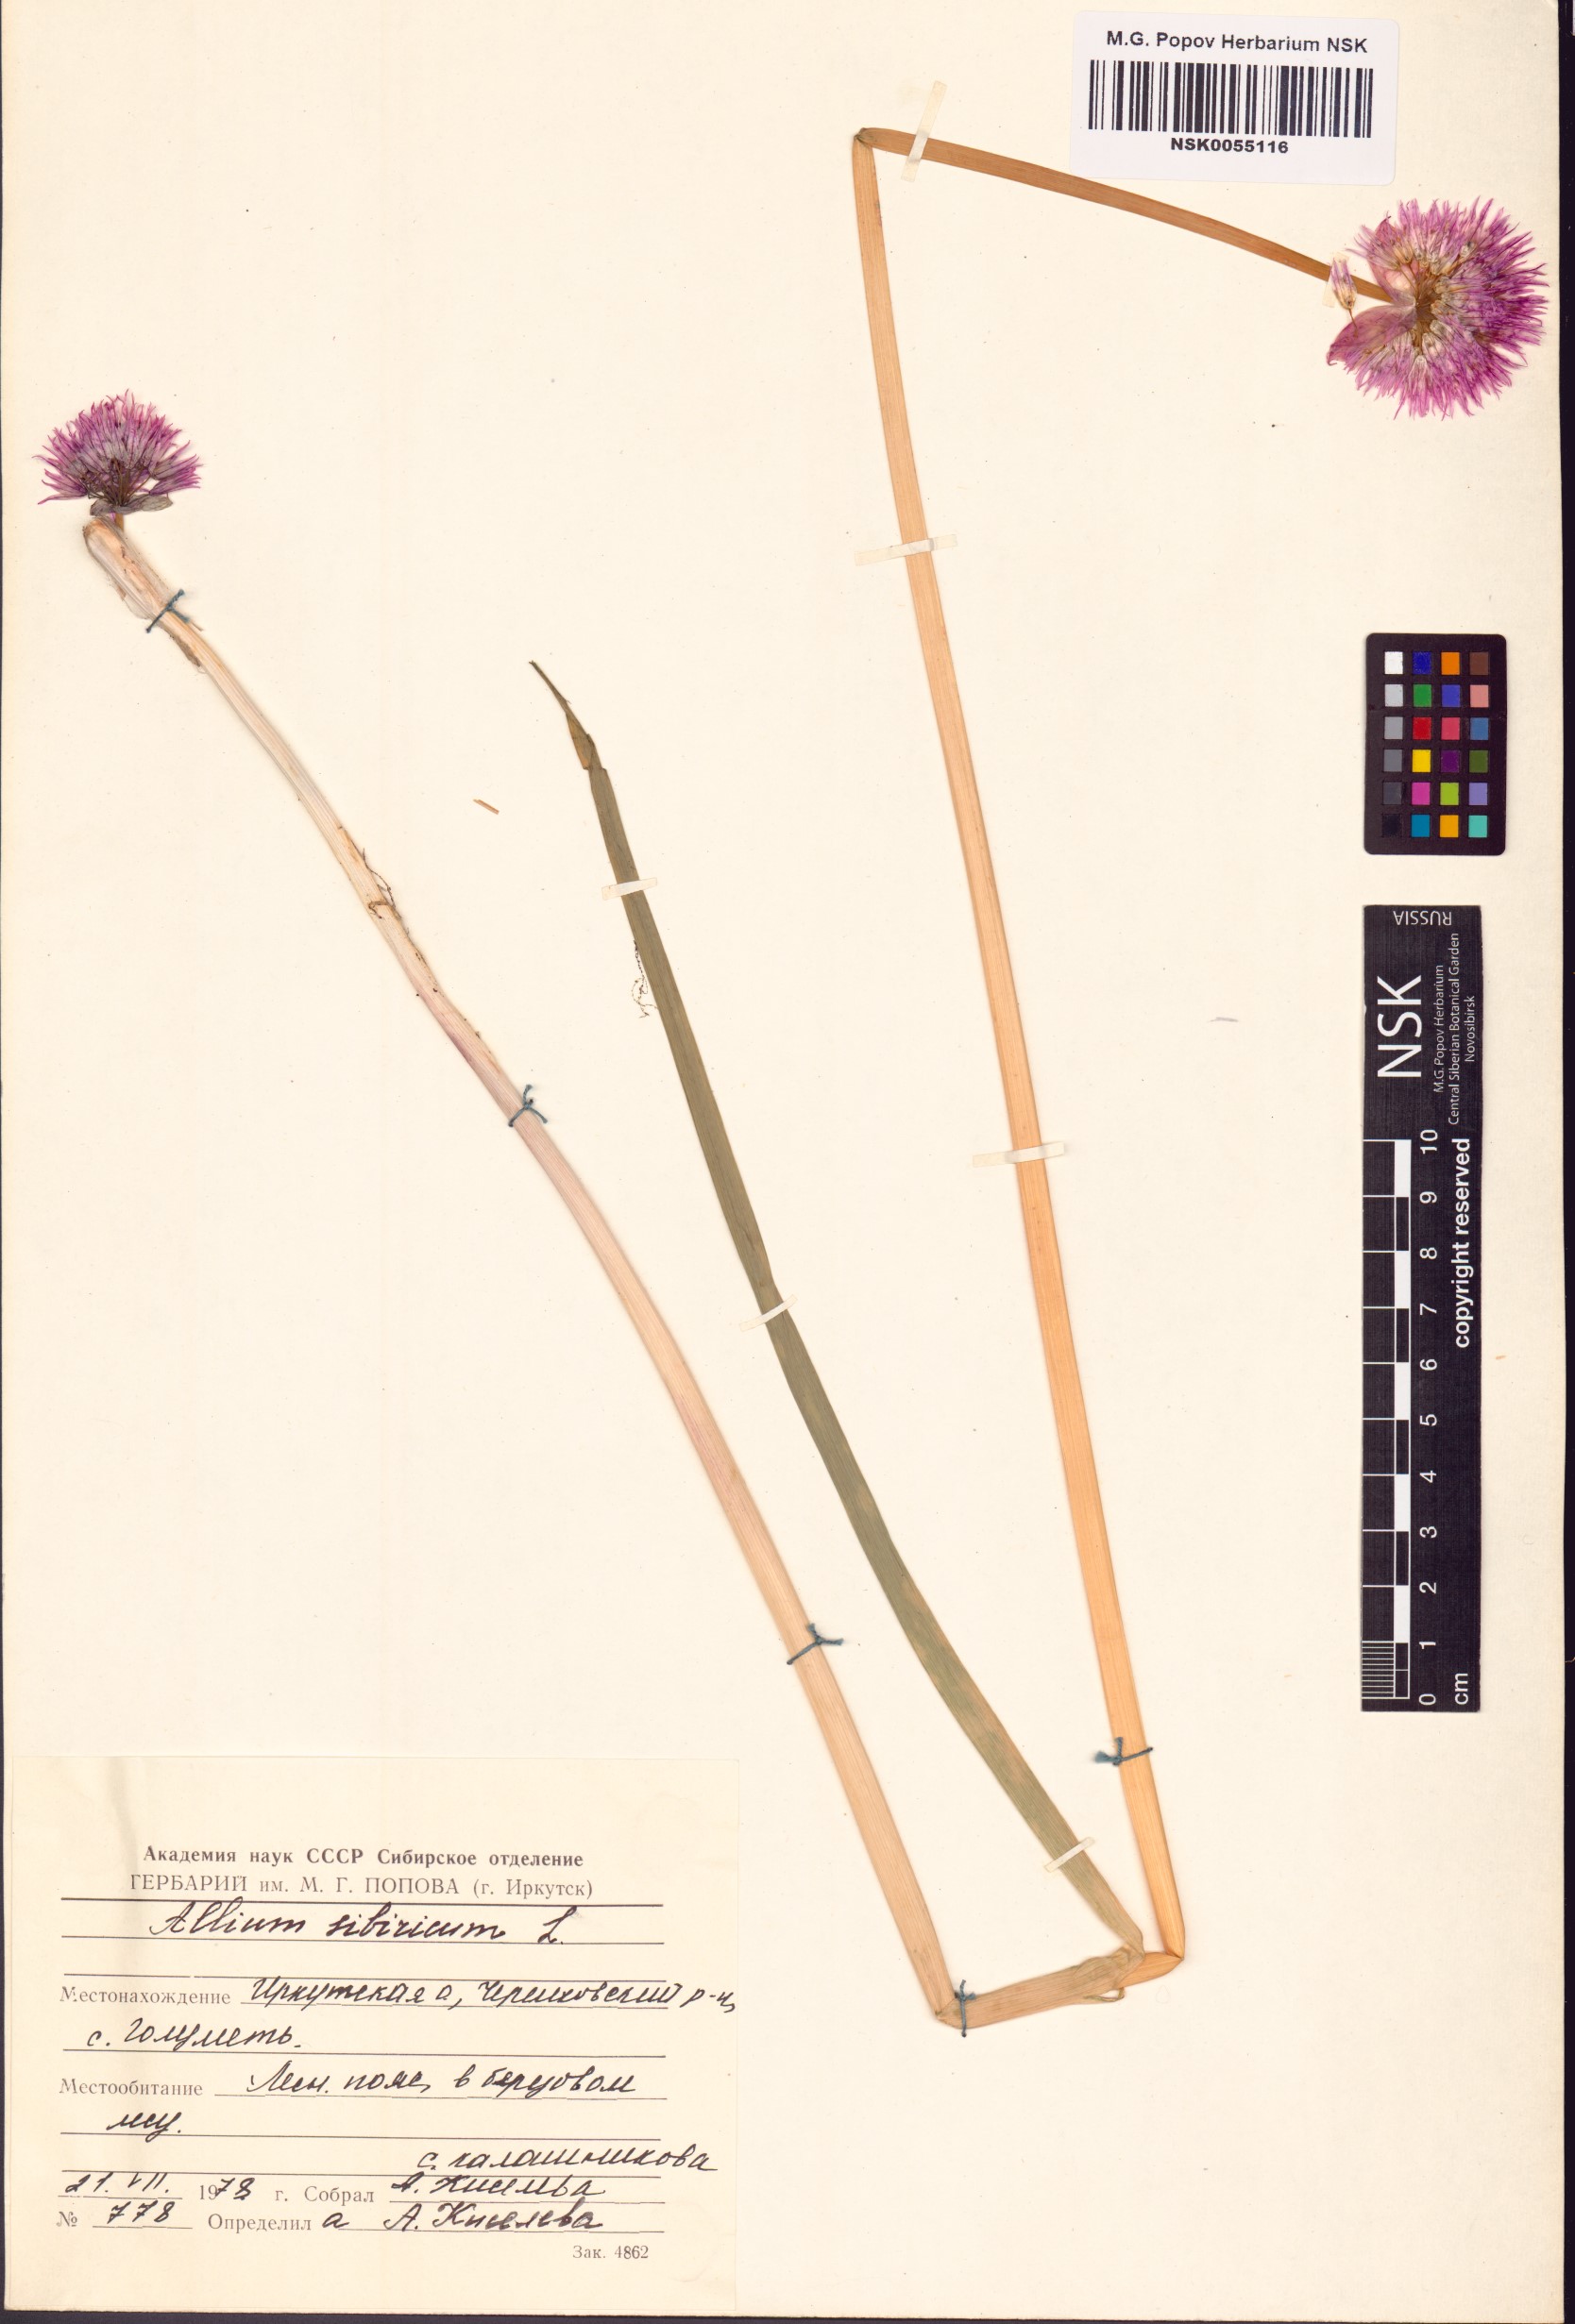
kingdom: Plantae
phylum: Tracheophyta
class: Liliopsida
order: Asparagales
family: Amaryllidaceae
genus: Allium
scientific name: Allium schoenoprasum
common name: Chives
